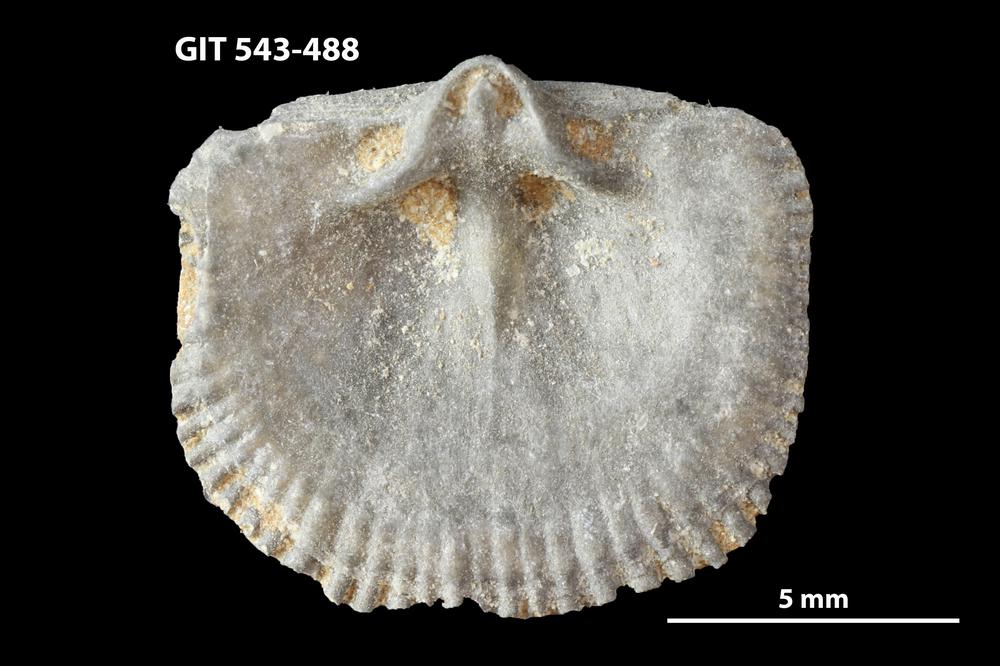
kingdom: Animalia
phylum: Brachiopoda
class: Rhynchonellata
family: Clitambonitidae
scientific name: Clitambonitidae
